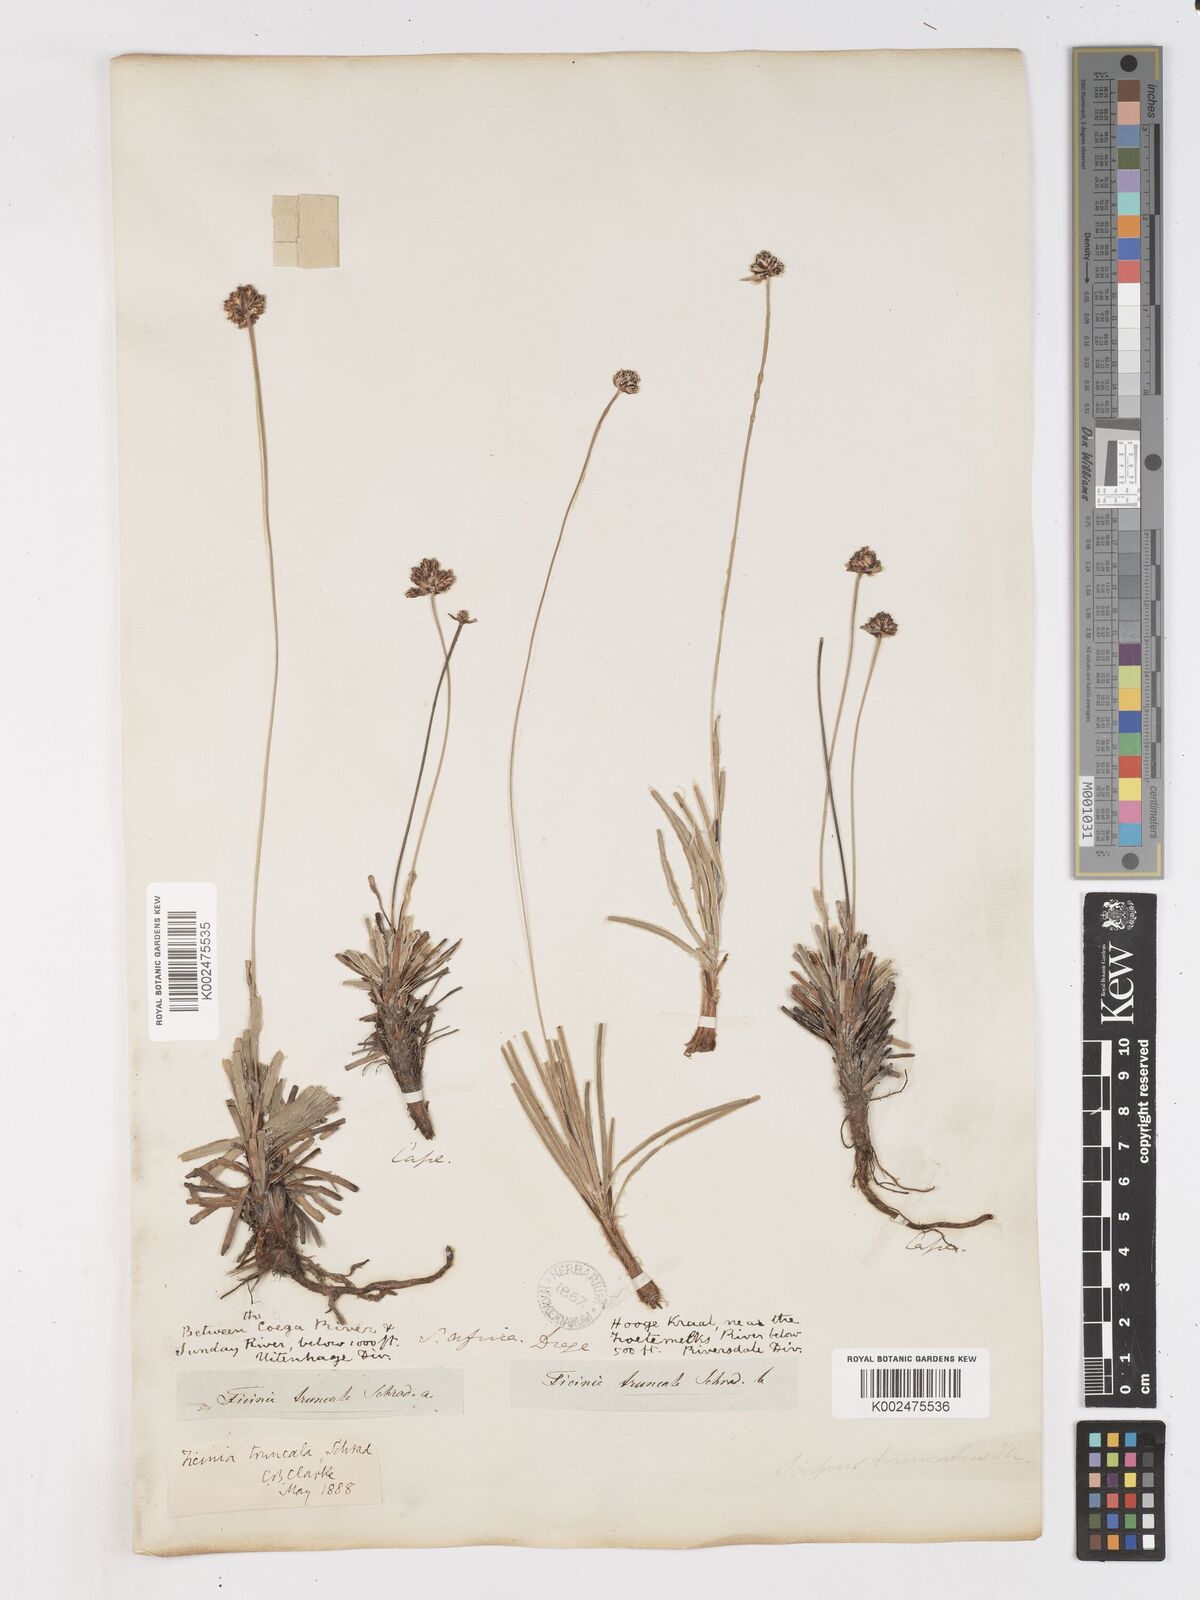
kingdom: Plantae
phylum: Tracheophyta
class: Liliopsida
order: Poales
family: Cyperaceae
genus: Ficinia
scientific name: Ficinia truncata
